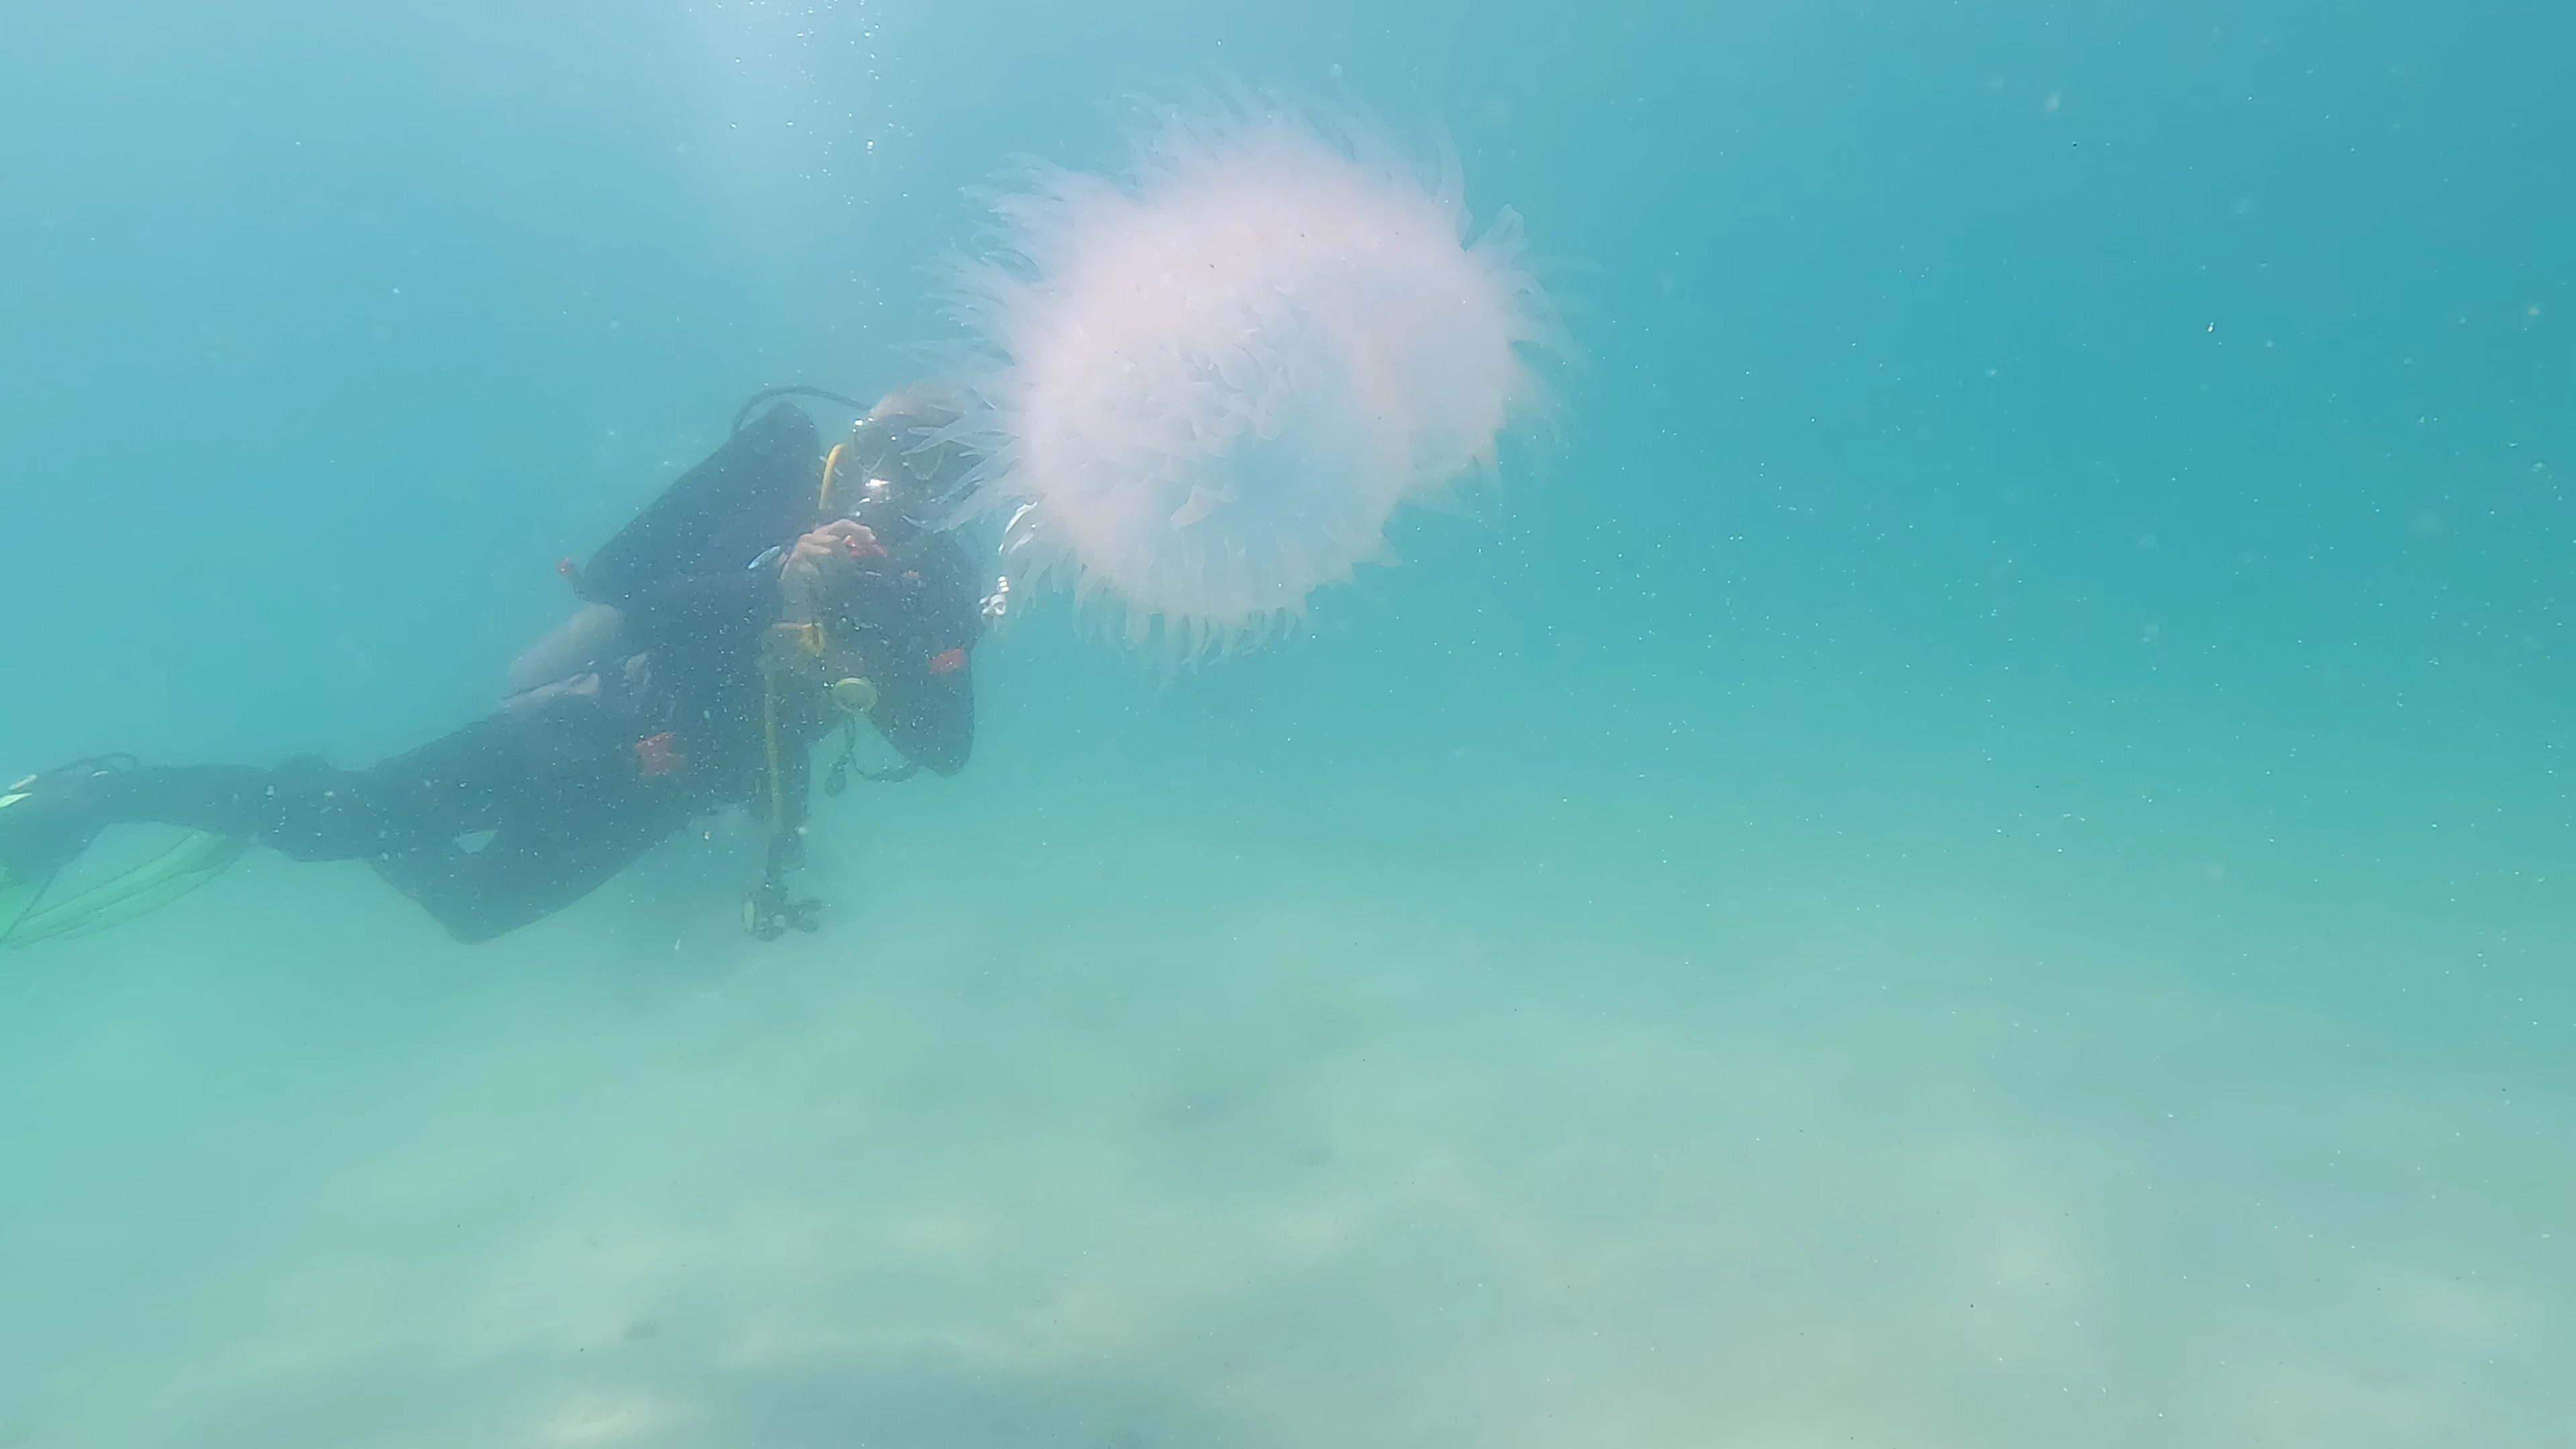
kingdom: Animalia
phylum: Cnidaria
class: Scyphozoa
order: Rhizostomeae
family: Lobonemidae
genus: Lobonema
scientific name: Lobonema smithii
